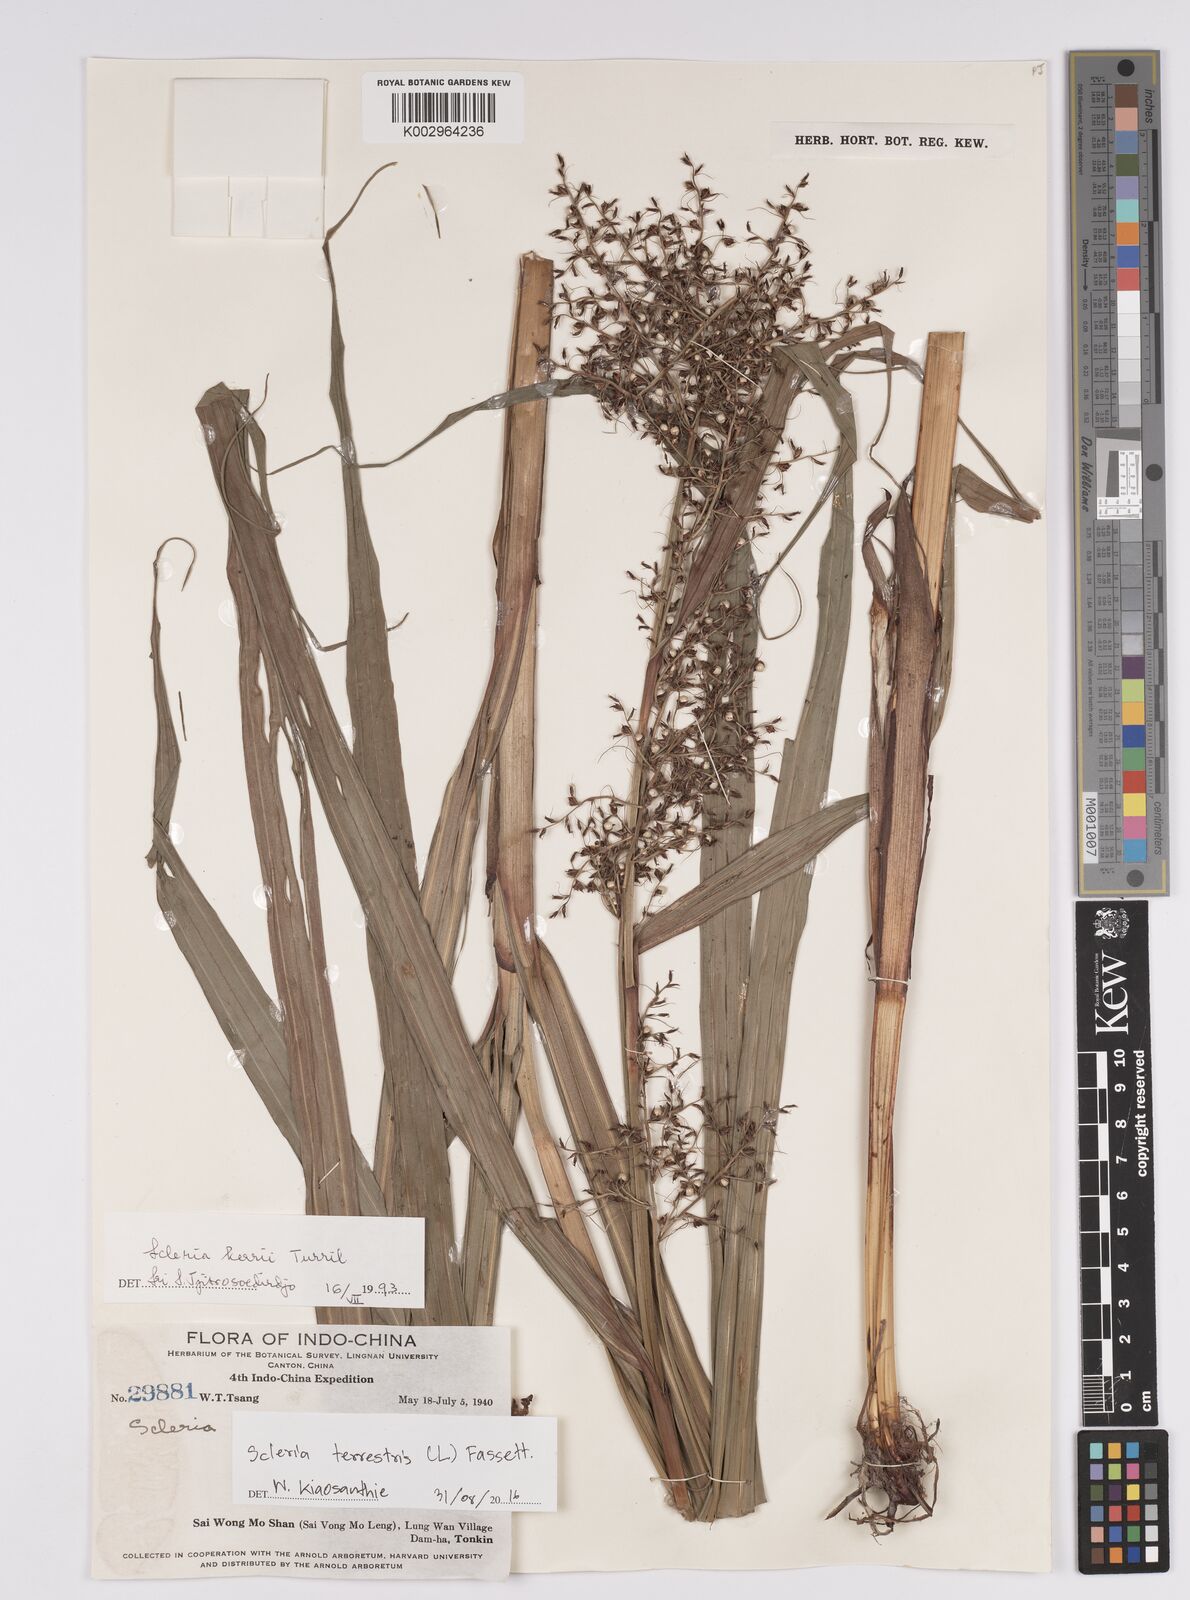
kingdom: Plantae
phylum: Tracheophyta
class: Liliopsida
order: Poales
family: Cyperaceae
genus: Scleria
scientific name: Scleria terrestris
